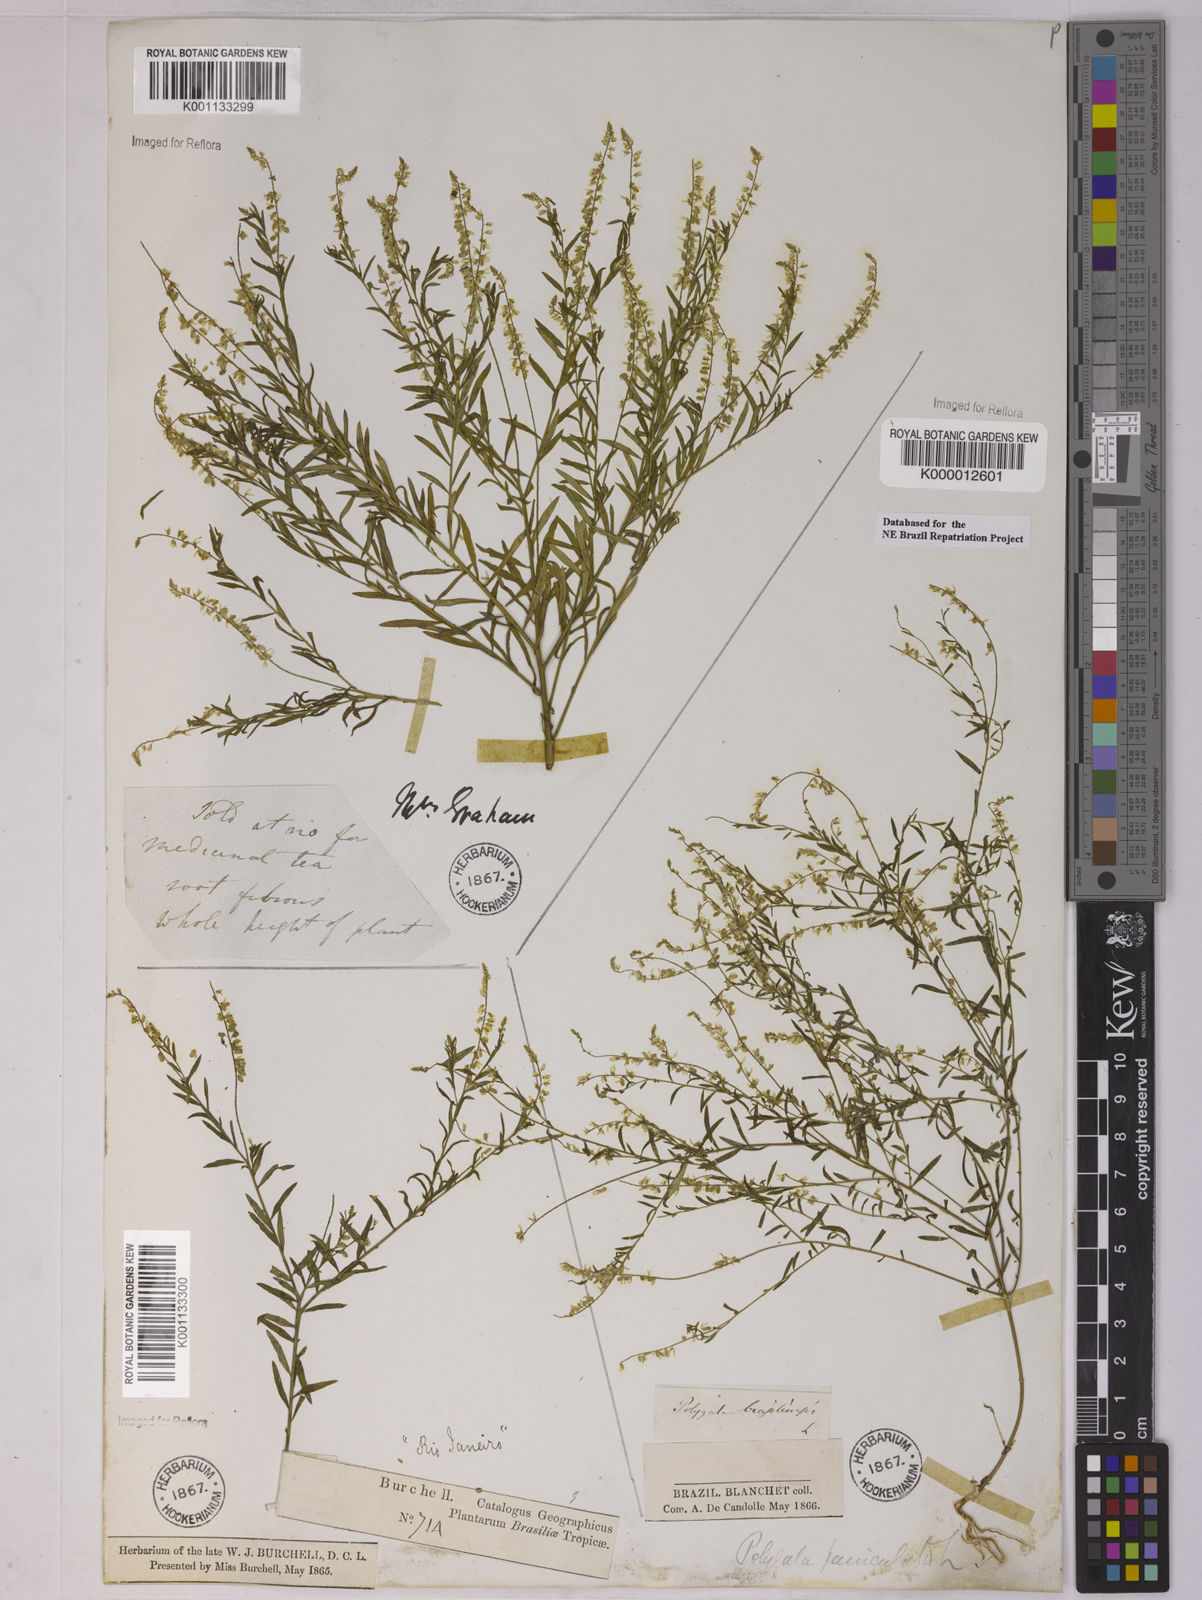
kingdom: Plantae
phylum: Tracheophyta
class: Magnoliopsida
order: Fabales
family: Polygalaceae
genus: Polygala
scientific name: Polygala paniculata
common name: Orosne
